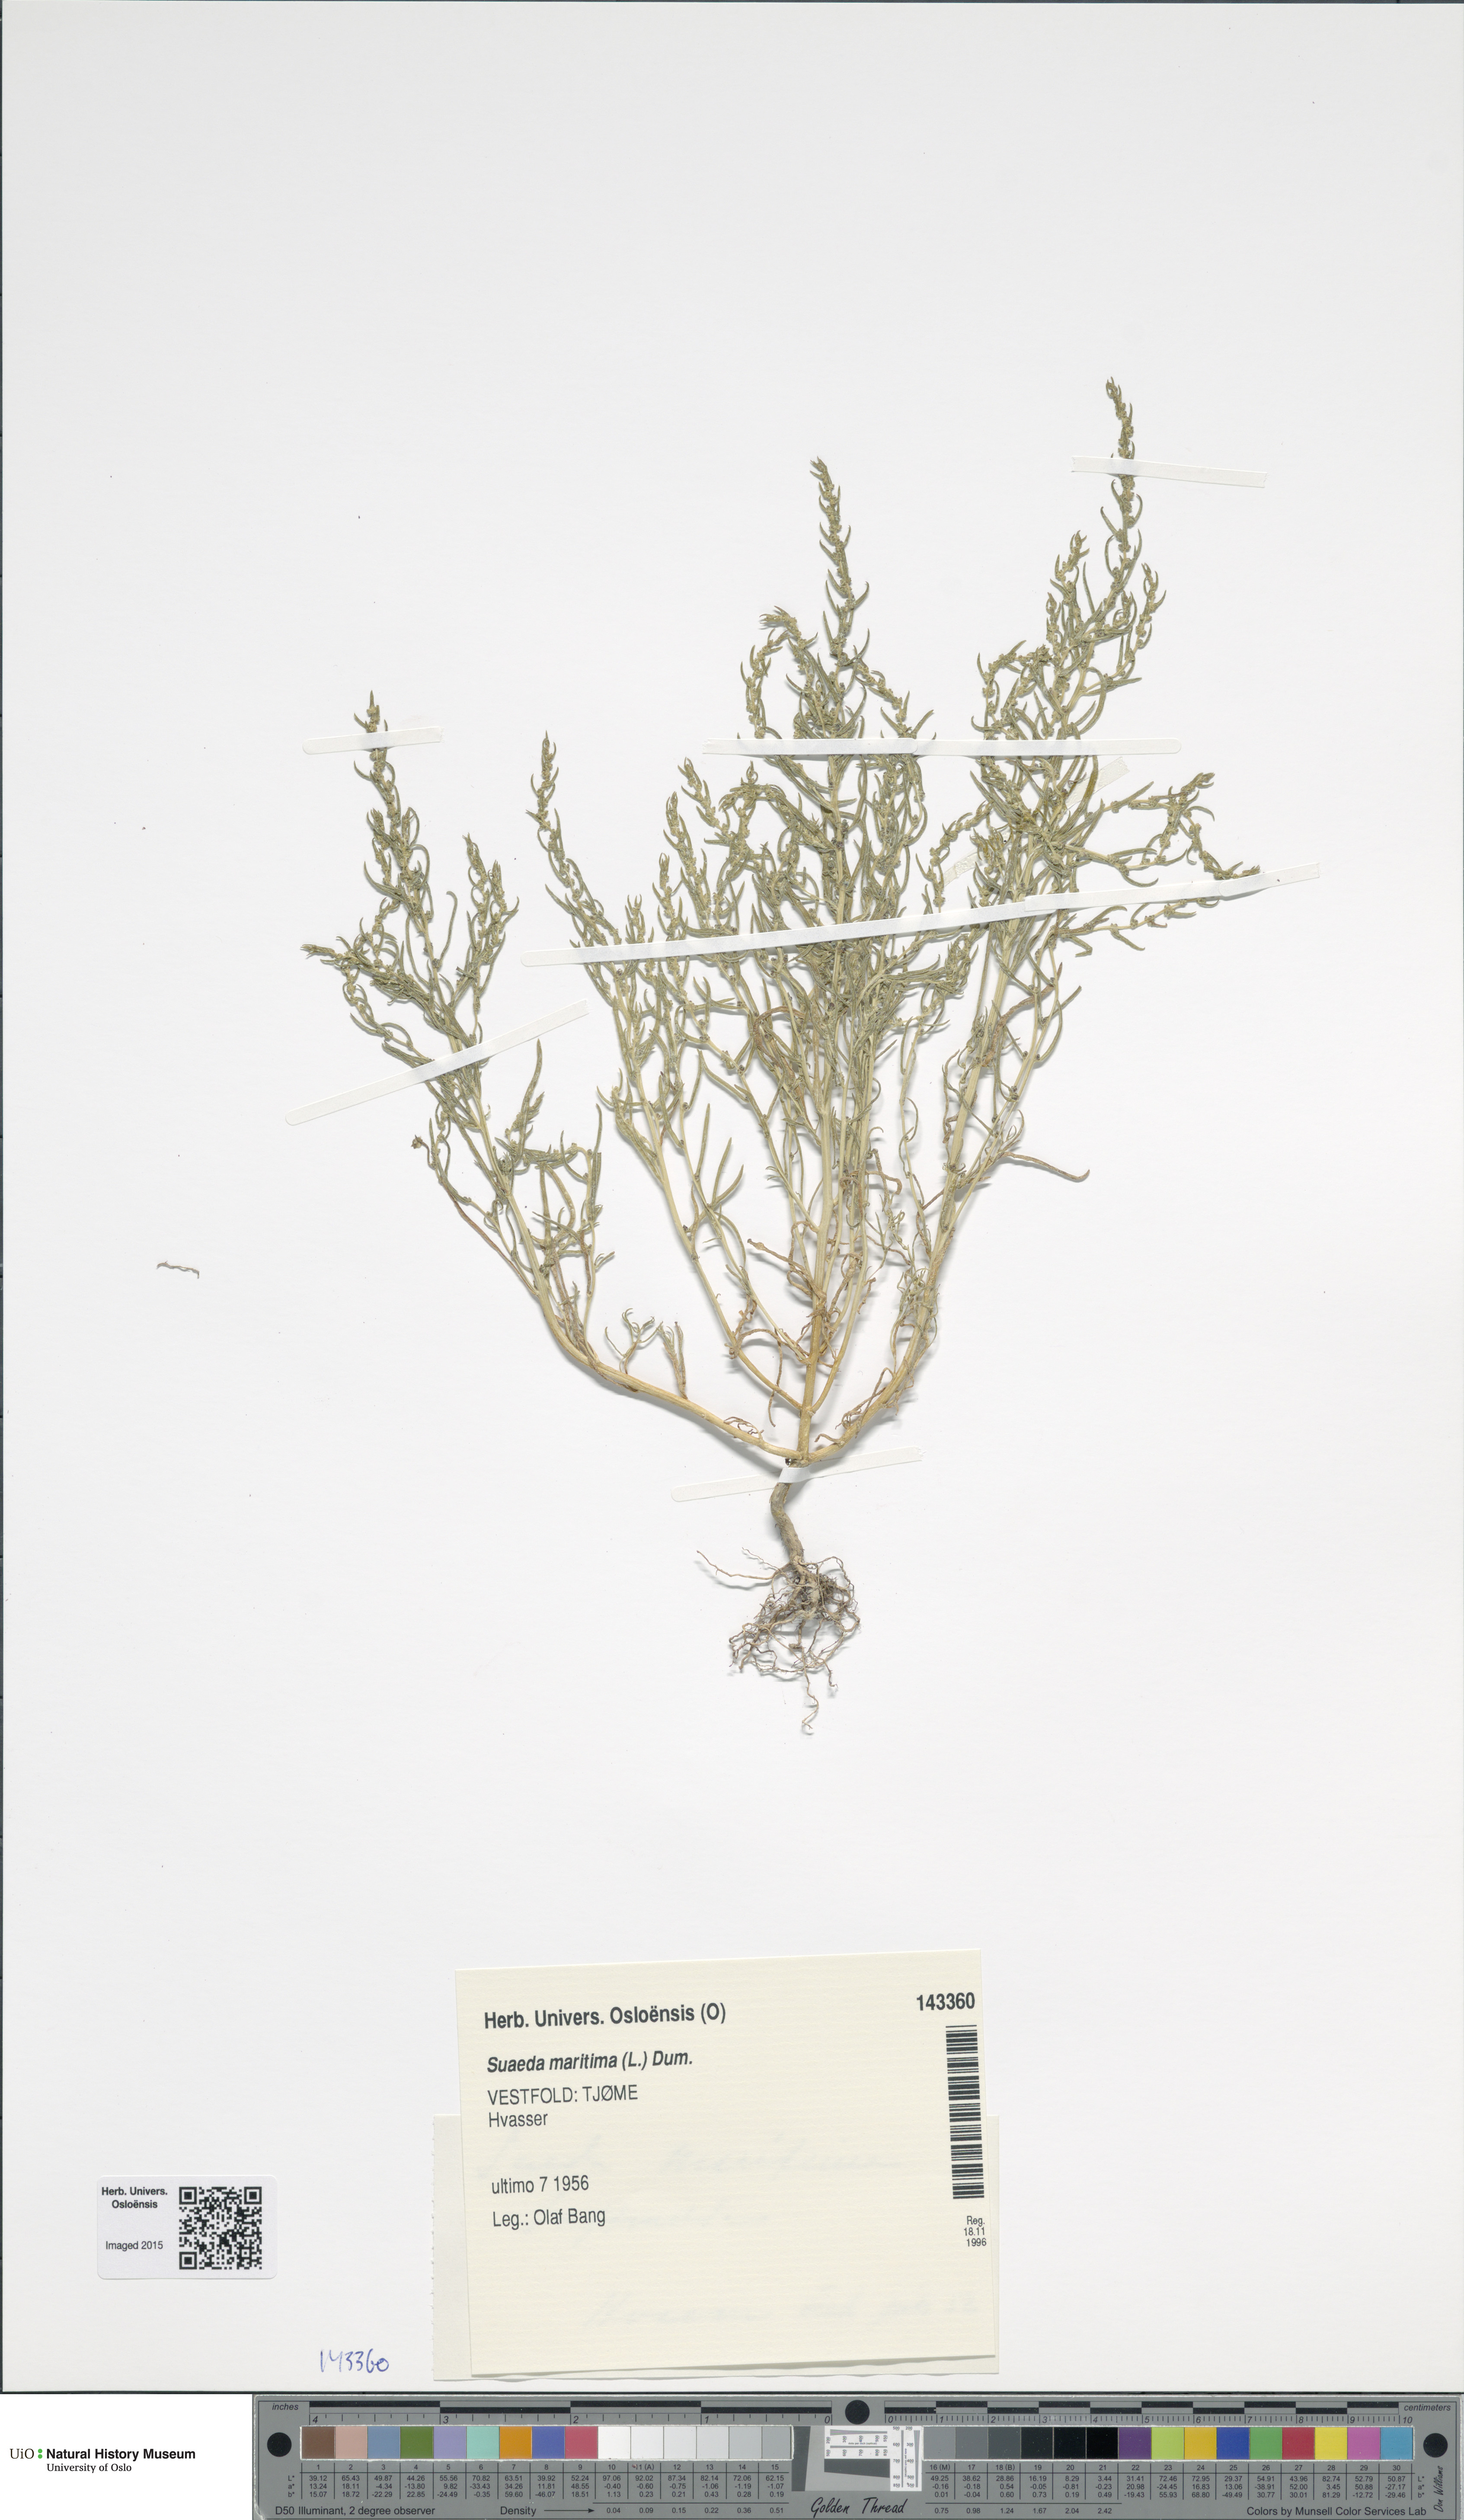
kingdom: Plantae
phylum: Tracheophyta
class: Magnoliopsida
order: Caryophyllales
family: Amaranthaceae
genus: Suaeda
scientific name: Suaeda maritima
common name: Annual sea-blite
